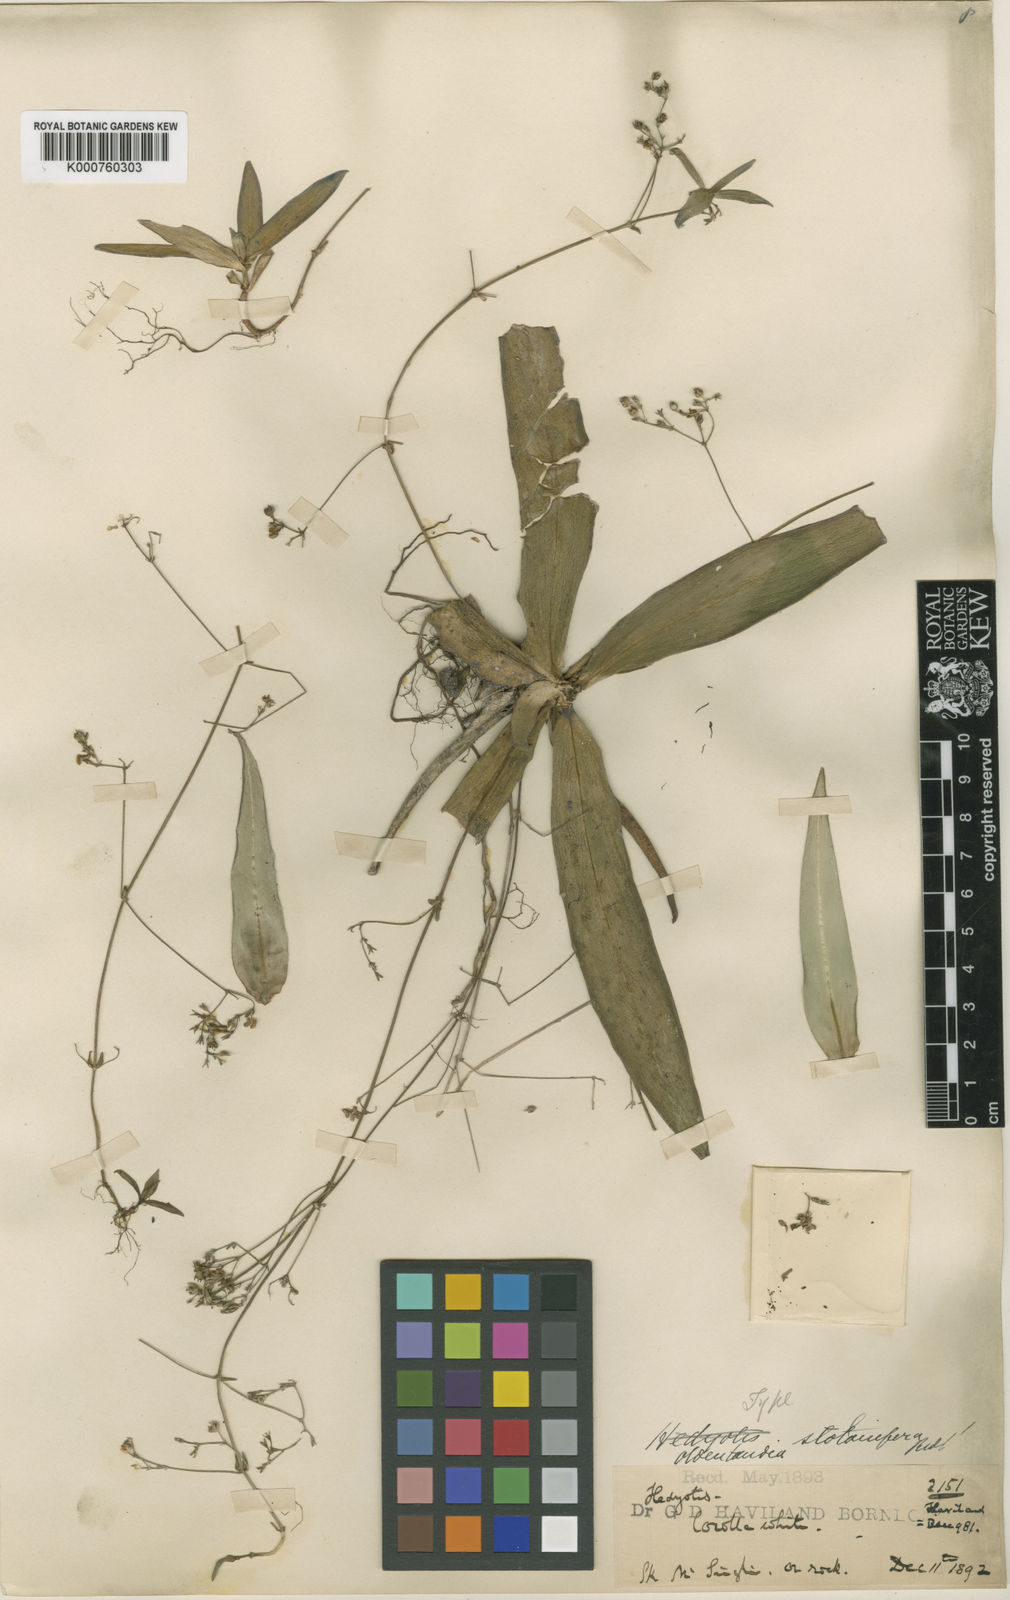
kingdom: Plantae
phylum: Tracheophyta
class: Magnoliopsida
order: Gentianales
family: Rubiaceae
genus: Hedyotis
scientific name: Hedyotis
